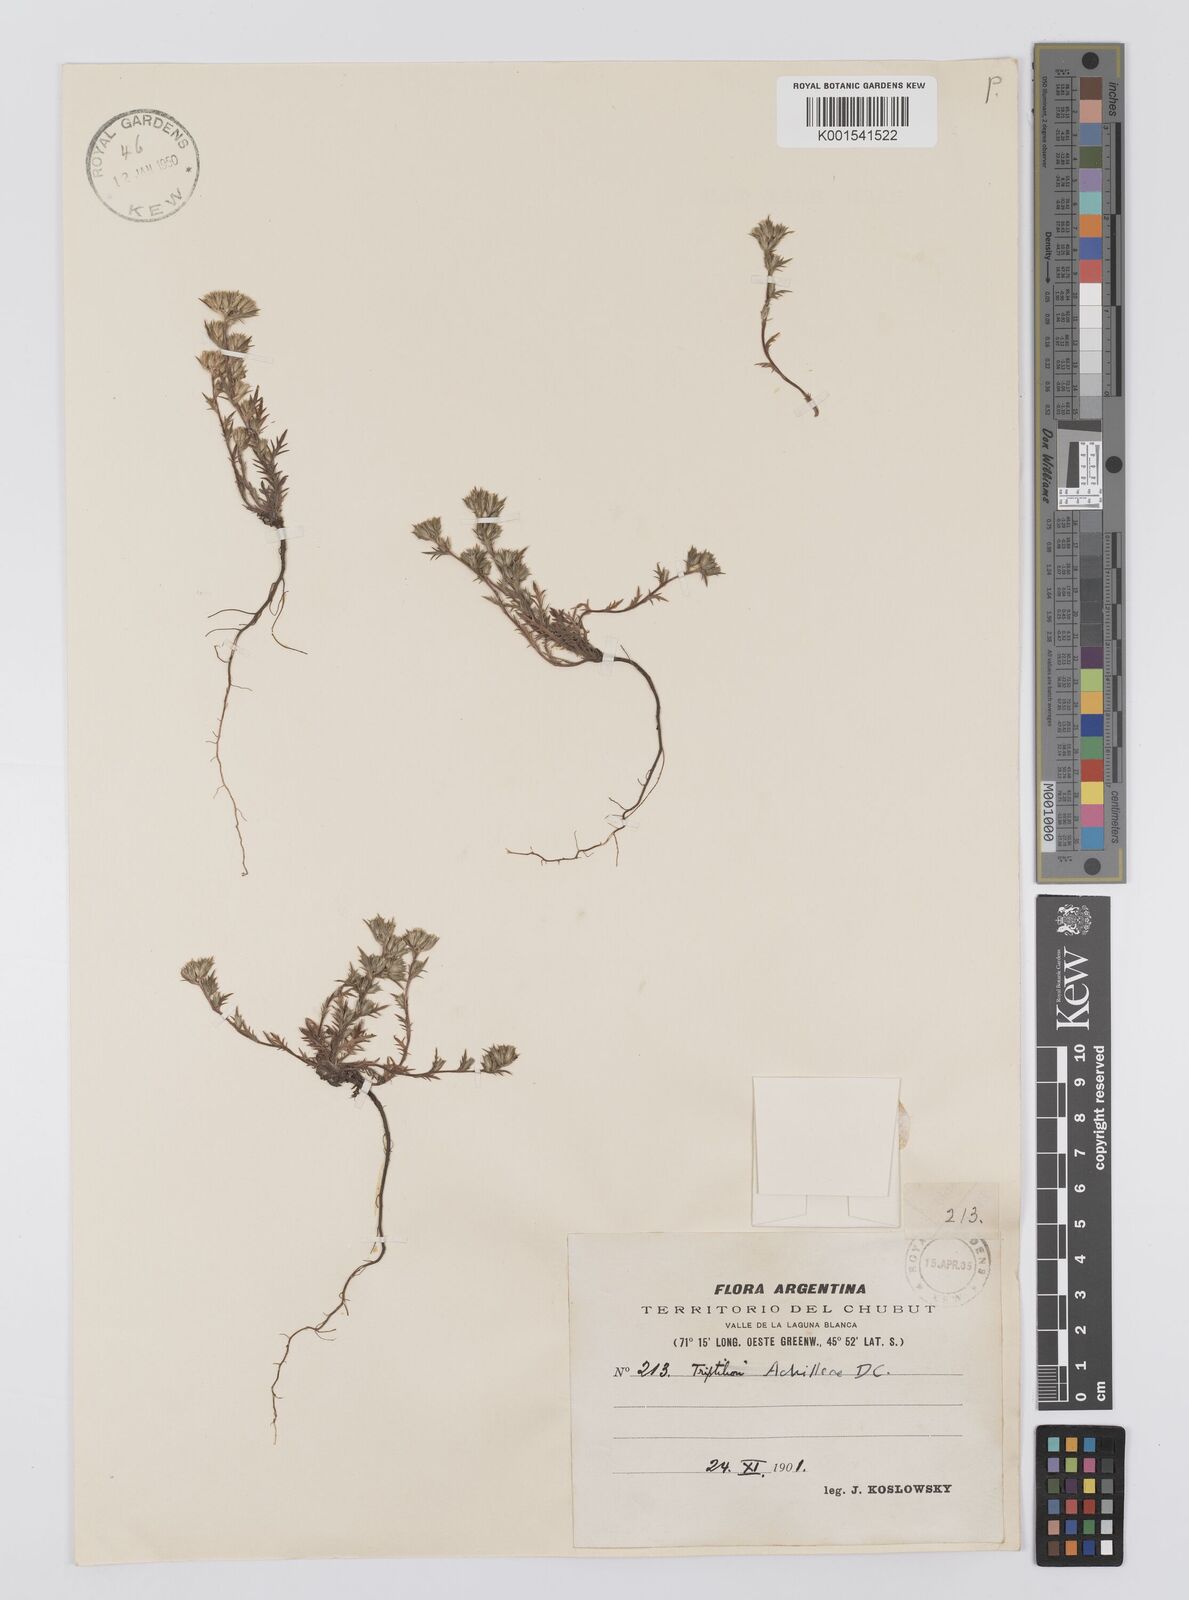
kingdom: Plantae
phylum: Tracheophyta
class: Magnoliopsida
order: Asterales
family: Asteraceae
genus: Triptilion
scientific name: Triptilion achilleae
